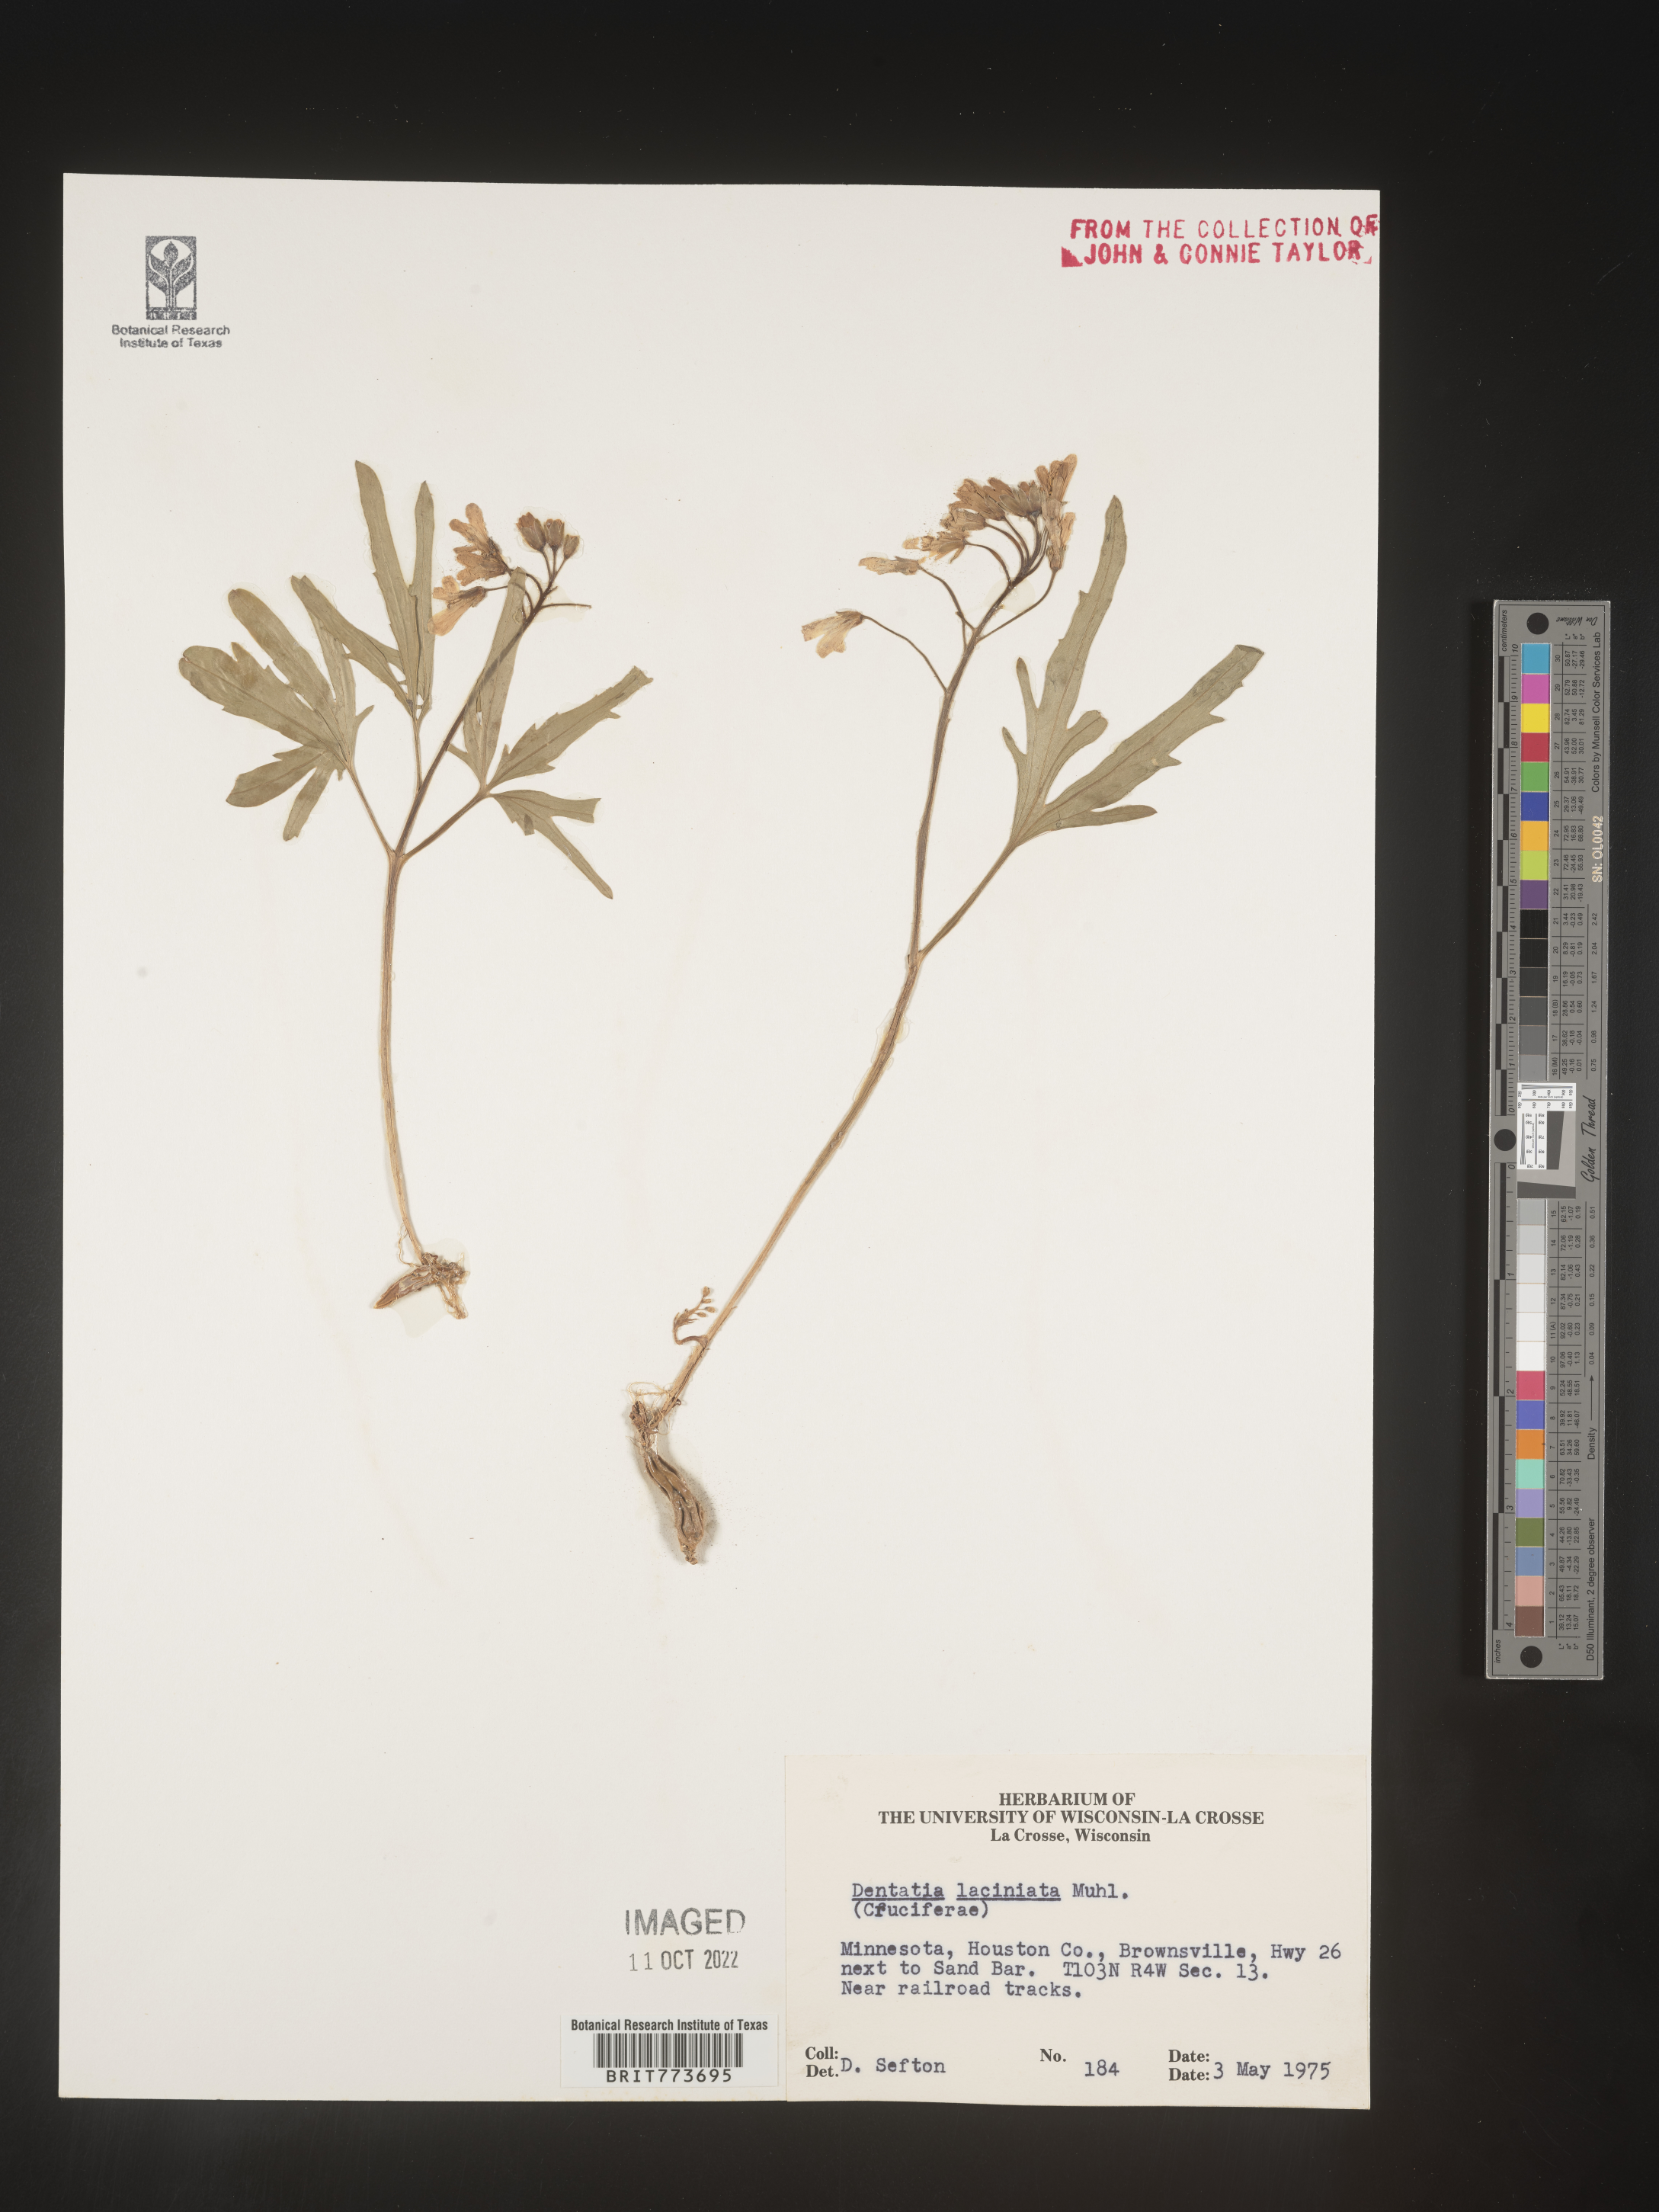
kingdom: Plantae
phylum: Tracheophyta
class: Magnoliopsida
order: Brassicales
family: Brassicaceae
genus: Rorippa
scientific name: Rorippa laciniata
